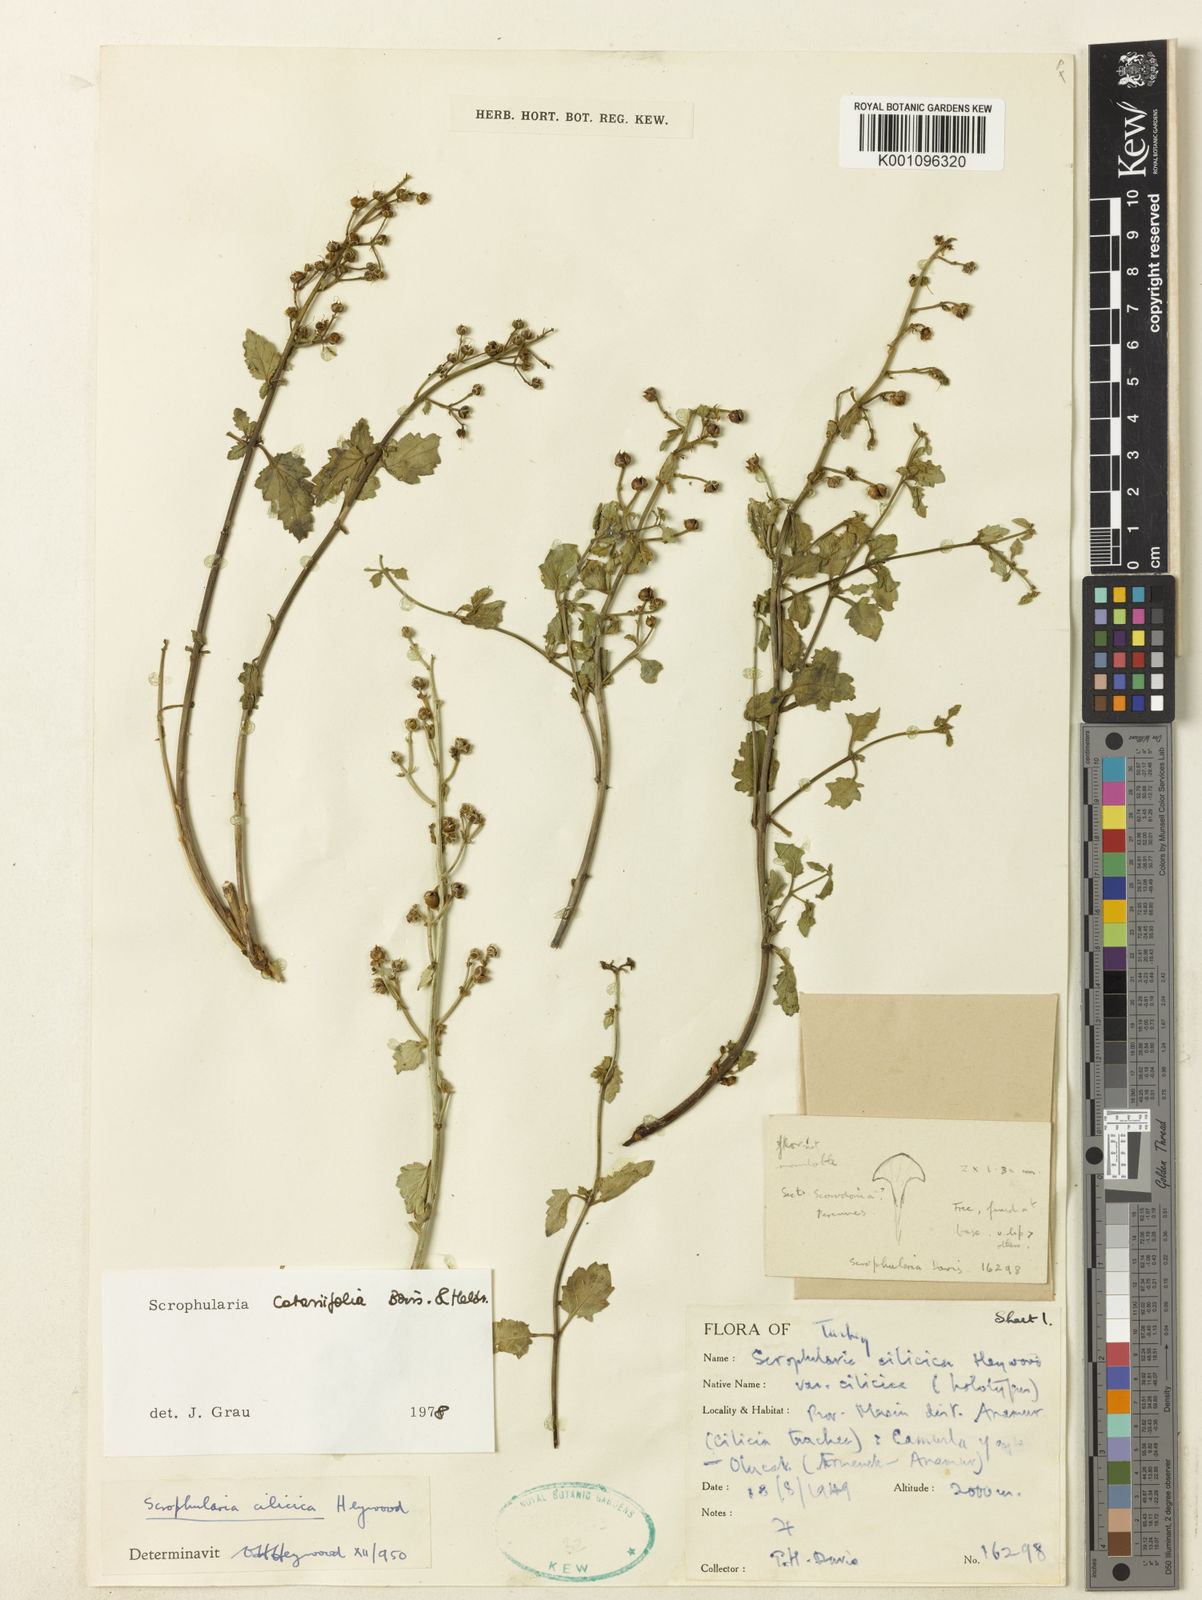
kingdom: Plantae
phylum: Tracheophyta
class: Magnoliopsida
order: Lamiales
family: Scrophulariaceae
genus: Scrophularia
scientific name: Scrophularia catariifolia
